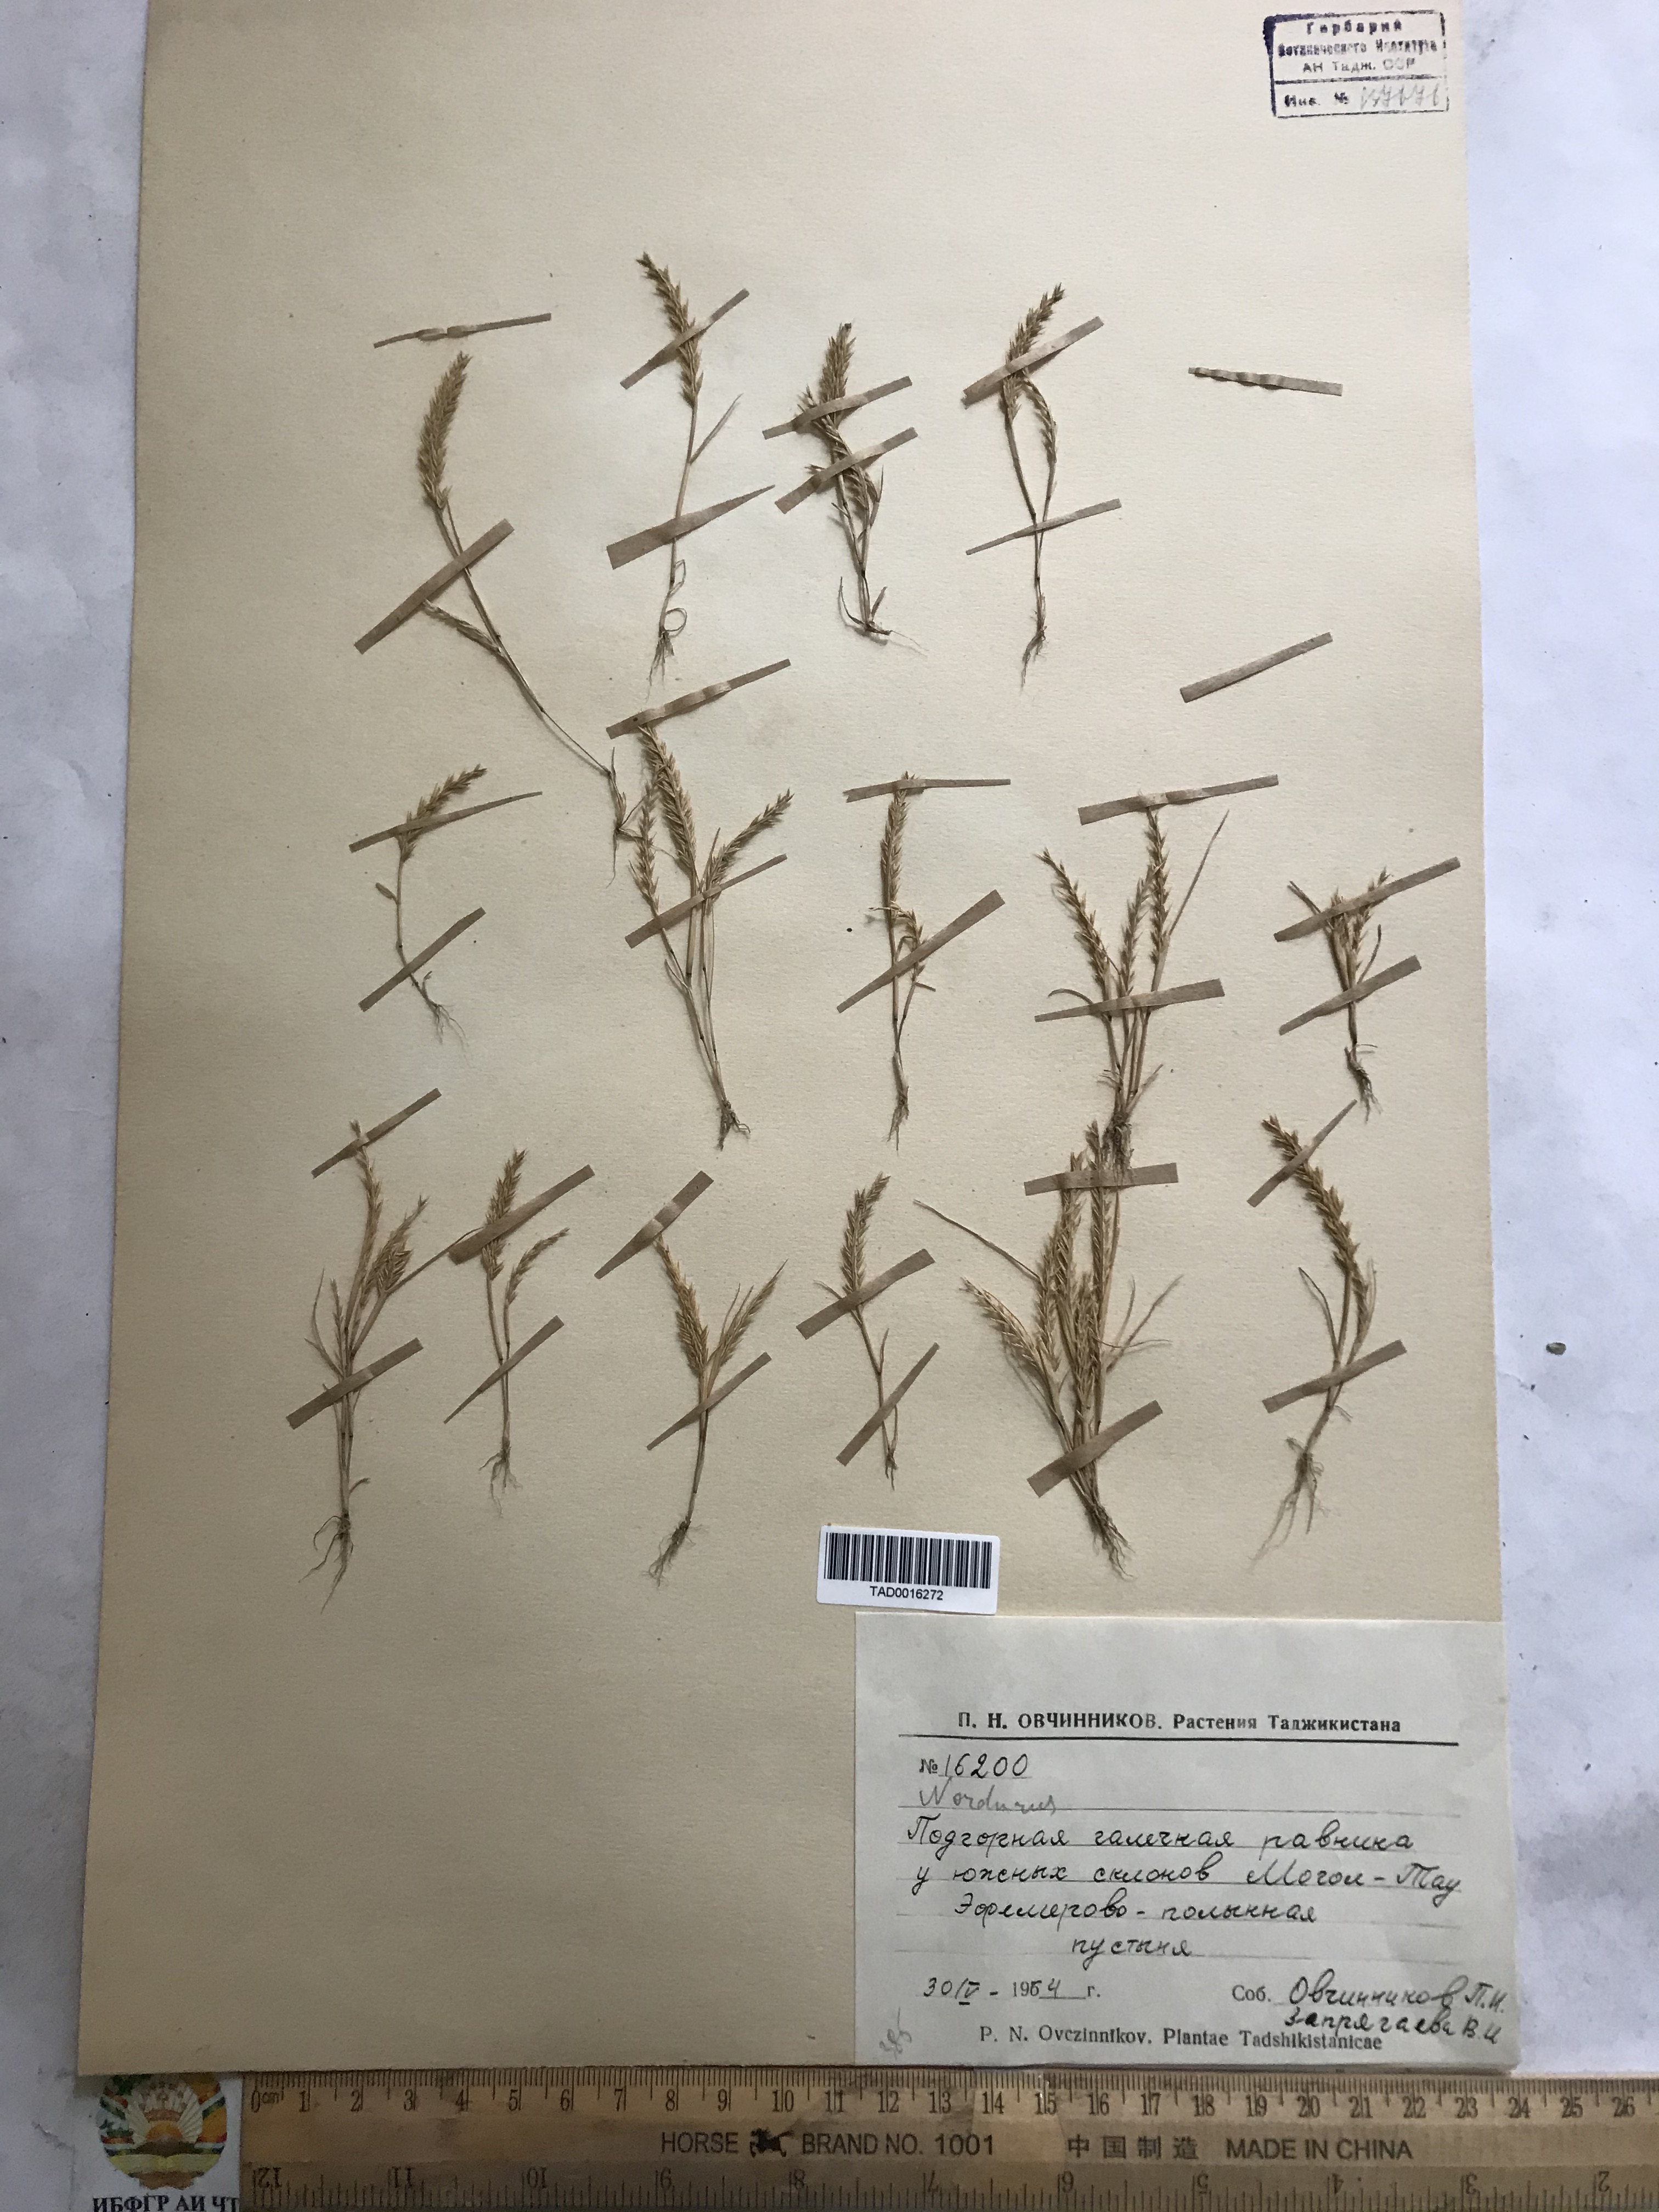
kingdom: Plantae
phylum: Tracheophyta
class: Liliopsida
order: Poales
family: Poaceae
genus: Festuca
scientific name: Festuca
